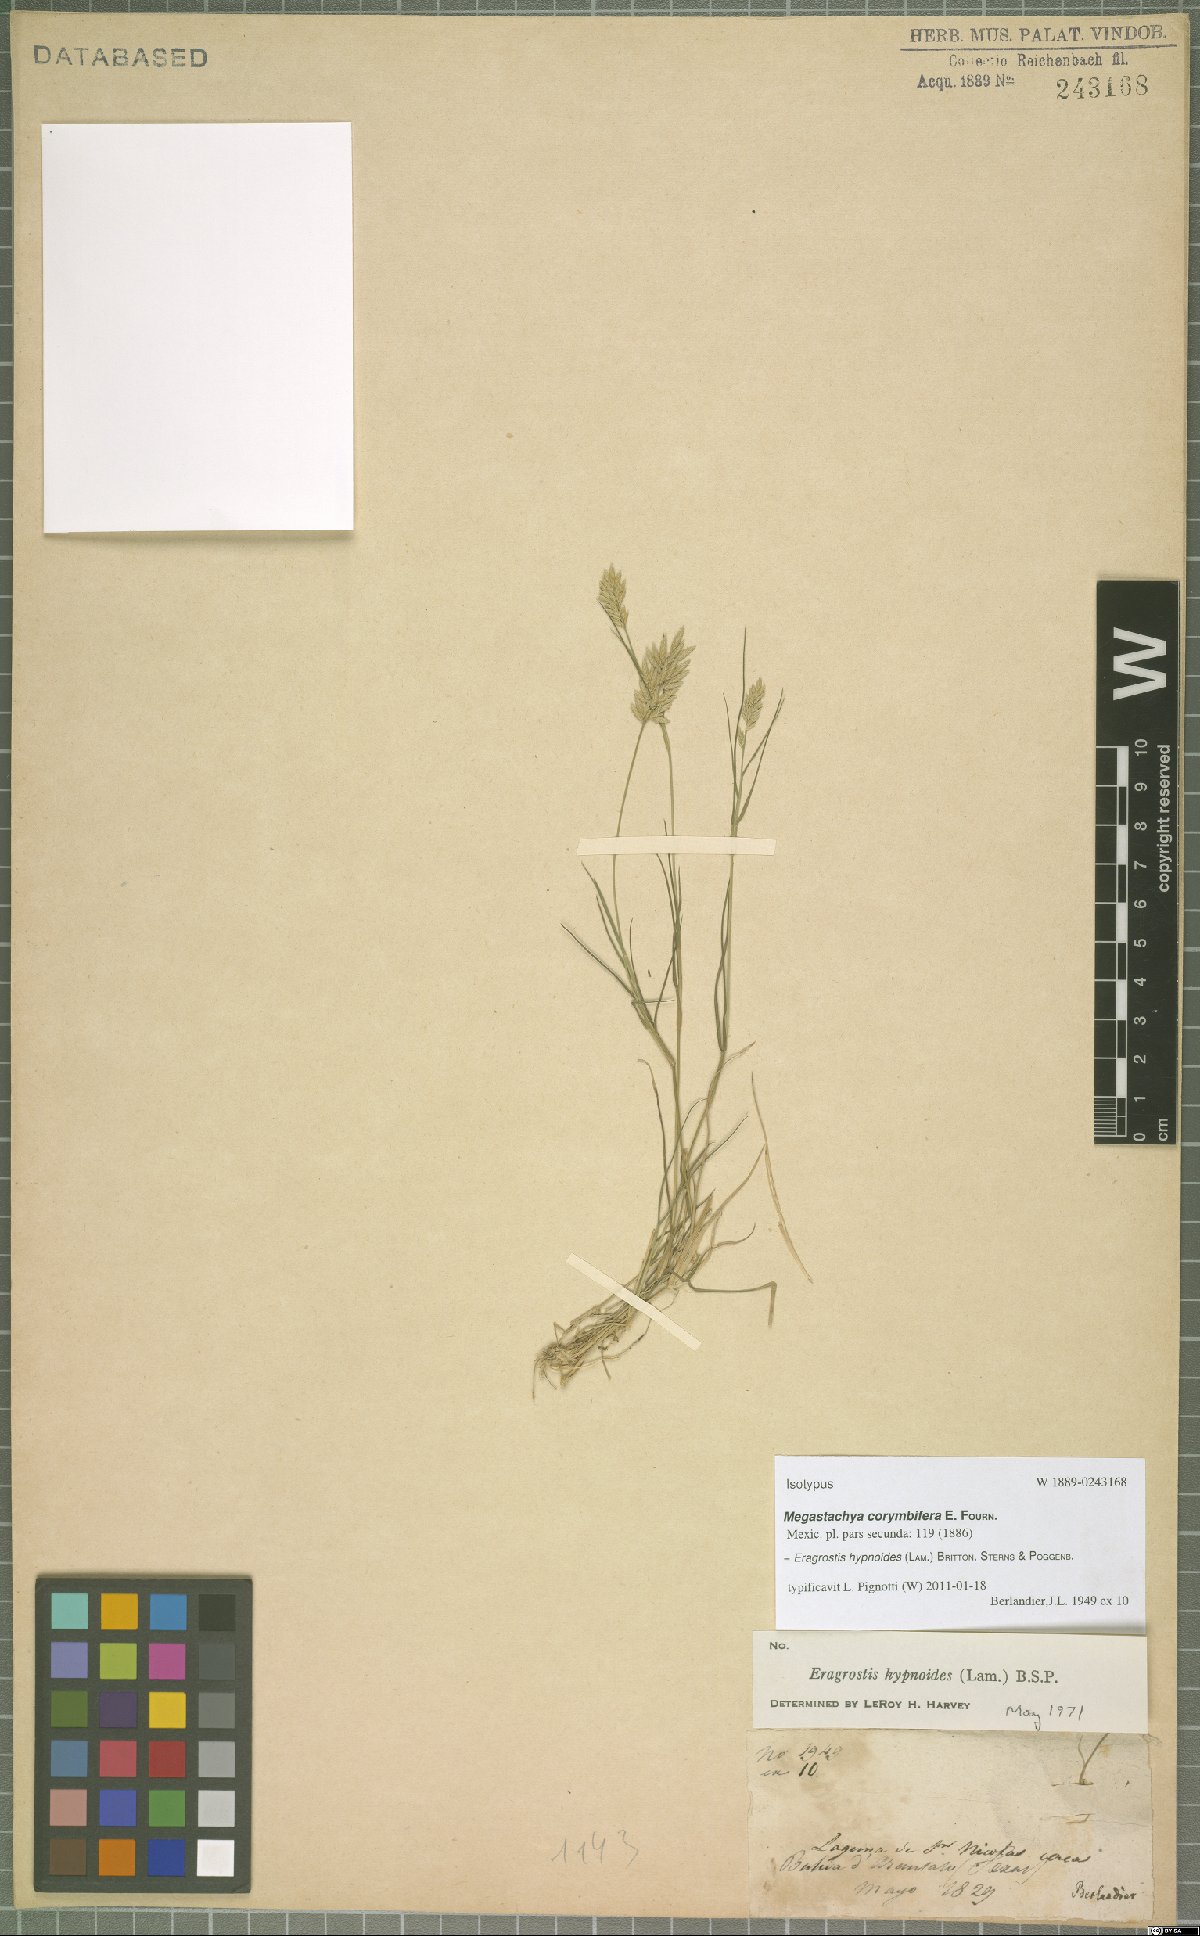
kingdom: Plantae
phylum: Tracheophyta
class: Liliopsida
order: Poales
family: Poaceae
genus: Eragrostis
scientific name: Eragrostis hypnoides
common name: Creeping love grass
